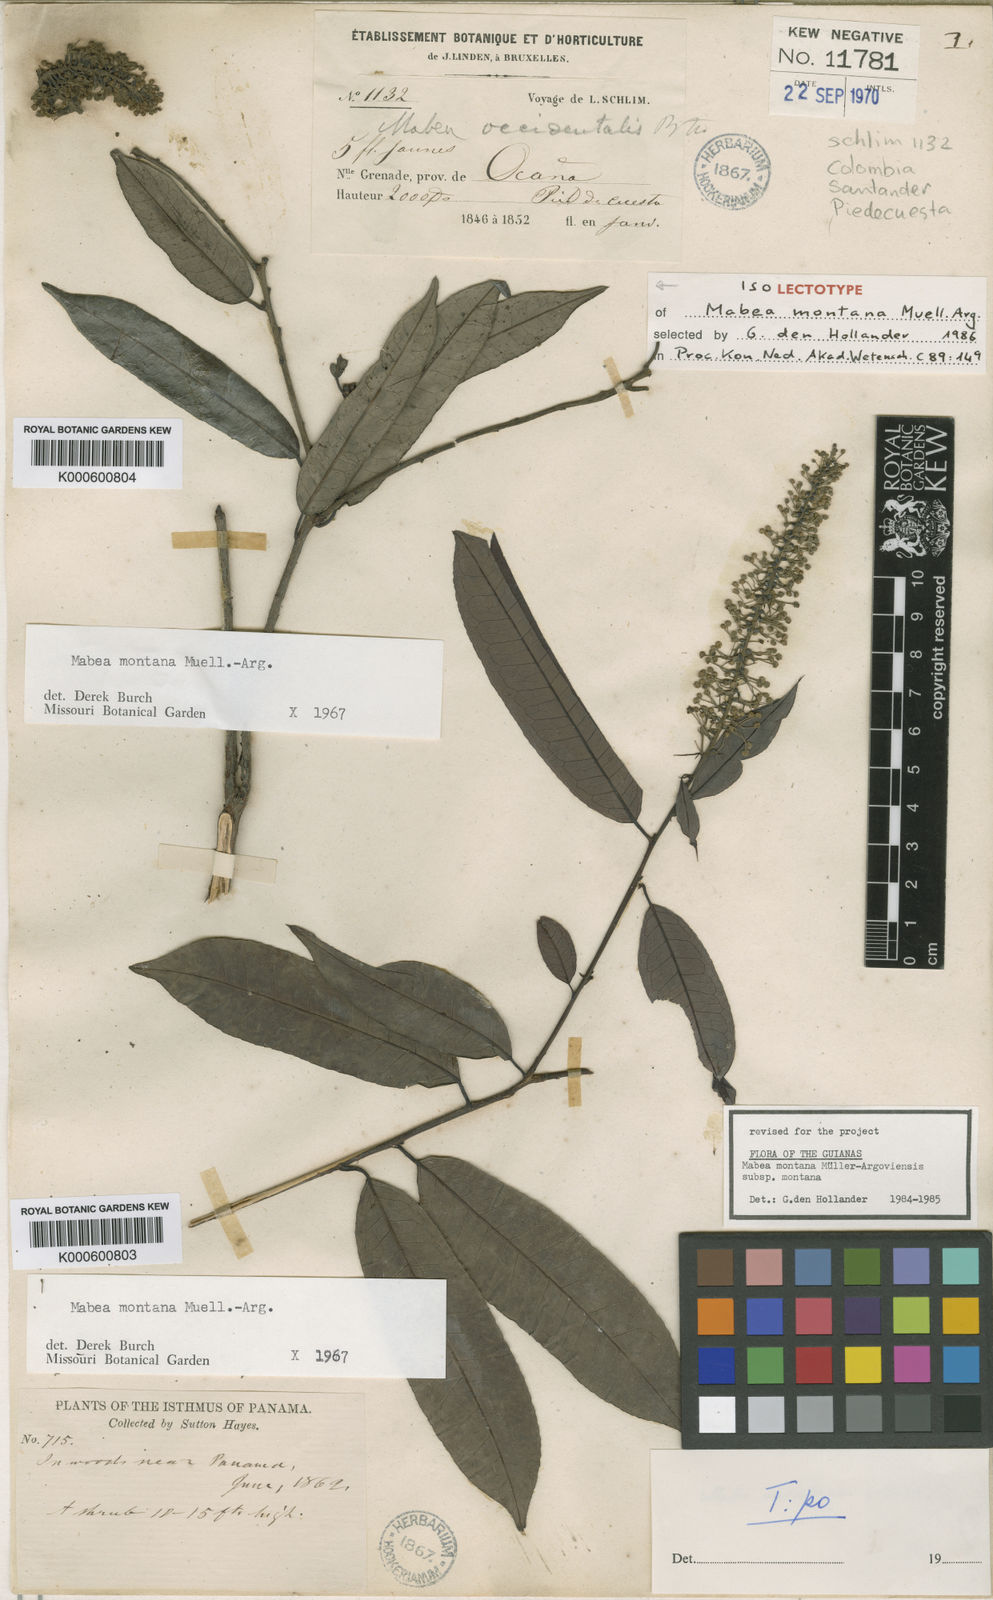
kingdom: Plantae
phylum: Tracheophyta
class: Magnoliopsida
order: Malpighiales
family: Euphorbiaceae
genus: Mabea
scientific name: Mabea
